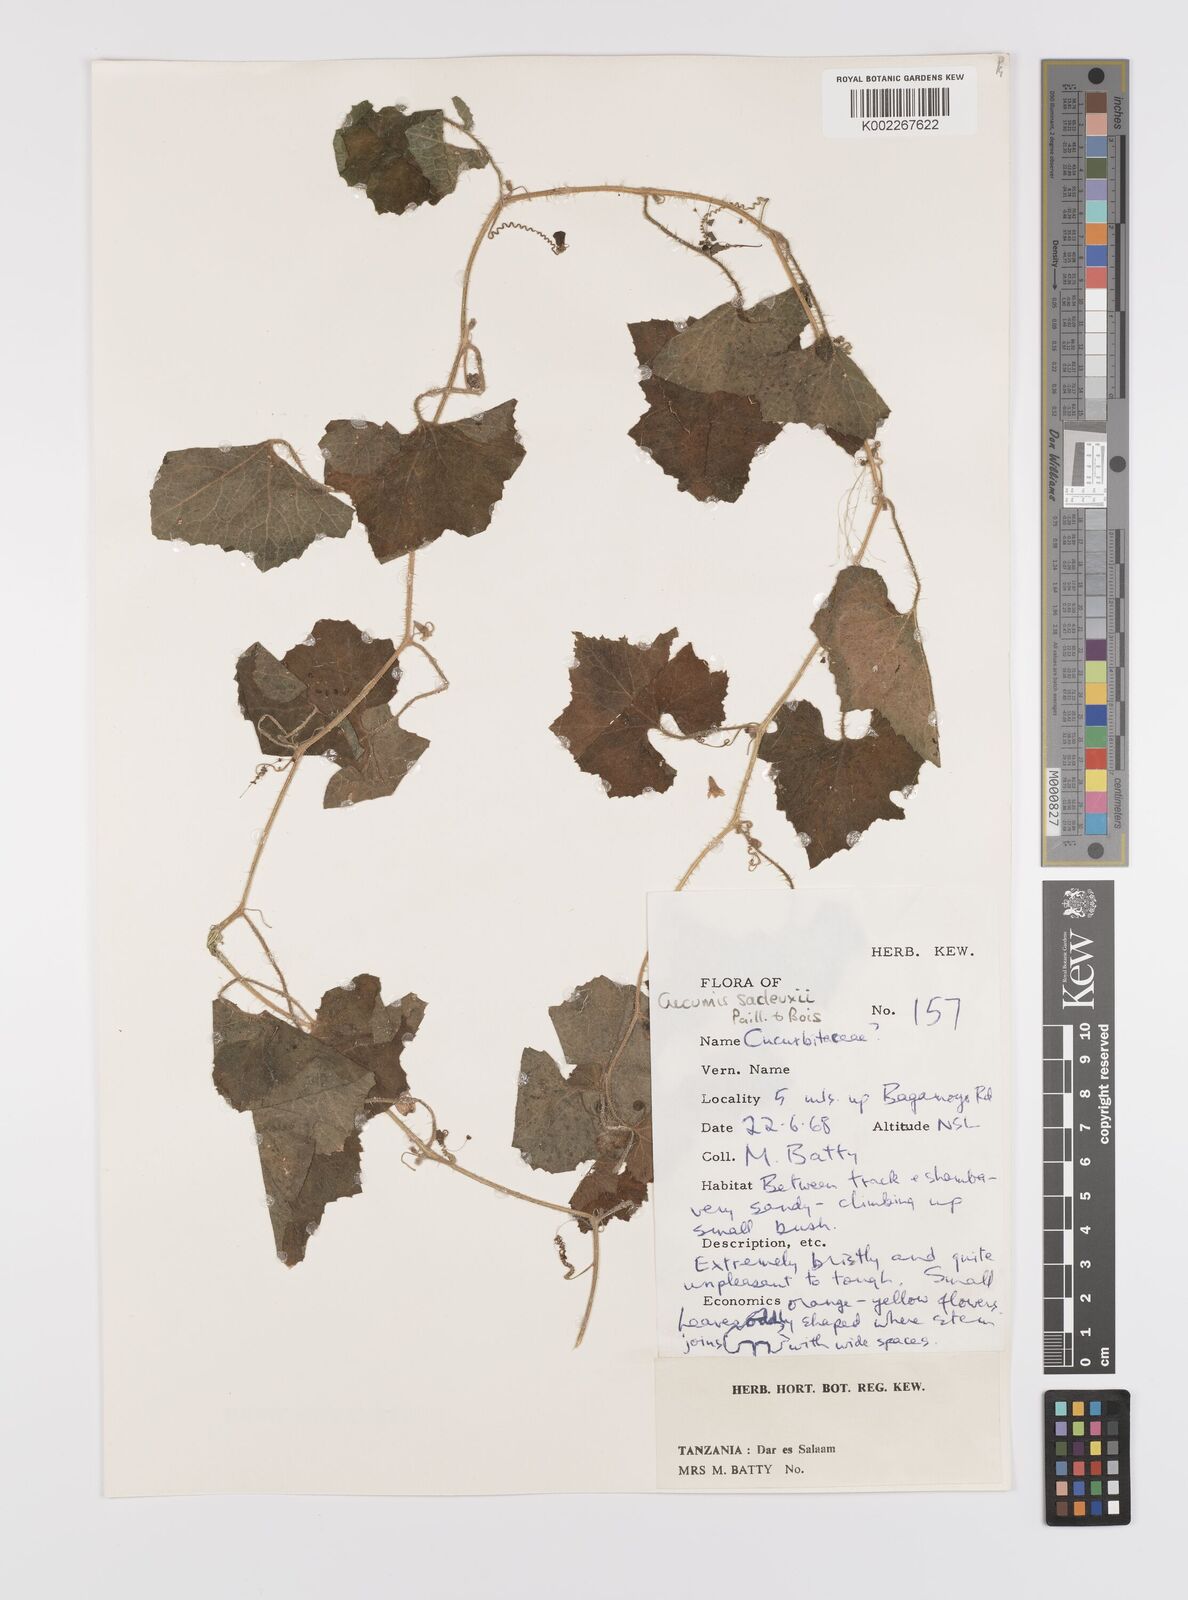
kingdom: Plantae
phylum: Tracheophyta
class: Magnoliopsida
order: Cucurbitales
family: Cucurbitaceae
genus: Cucumis
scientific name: Cucumis sacleuxii
